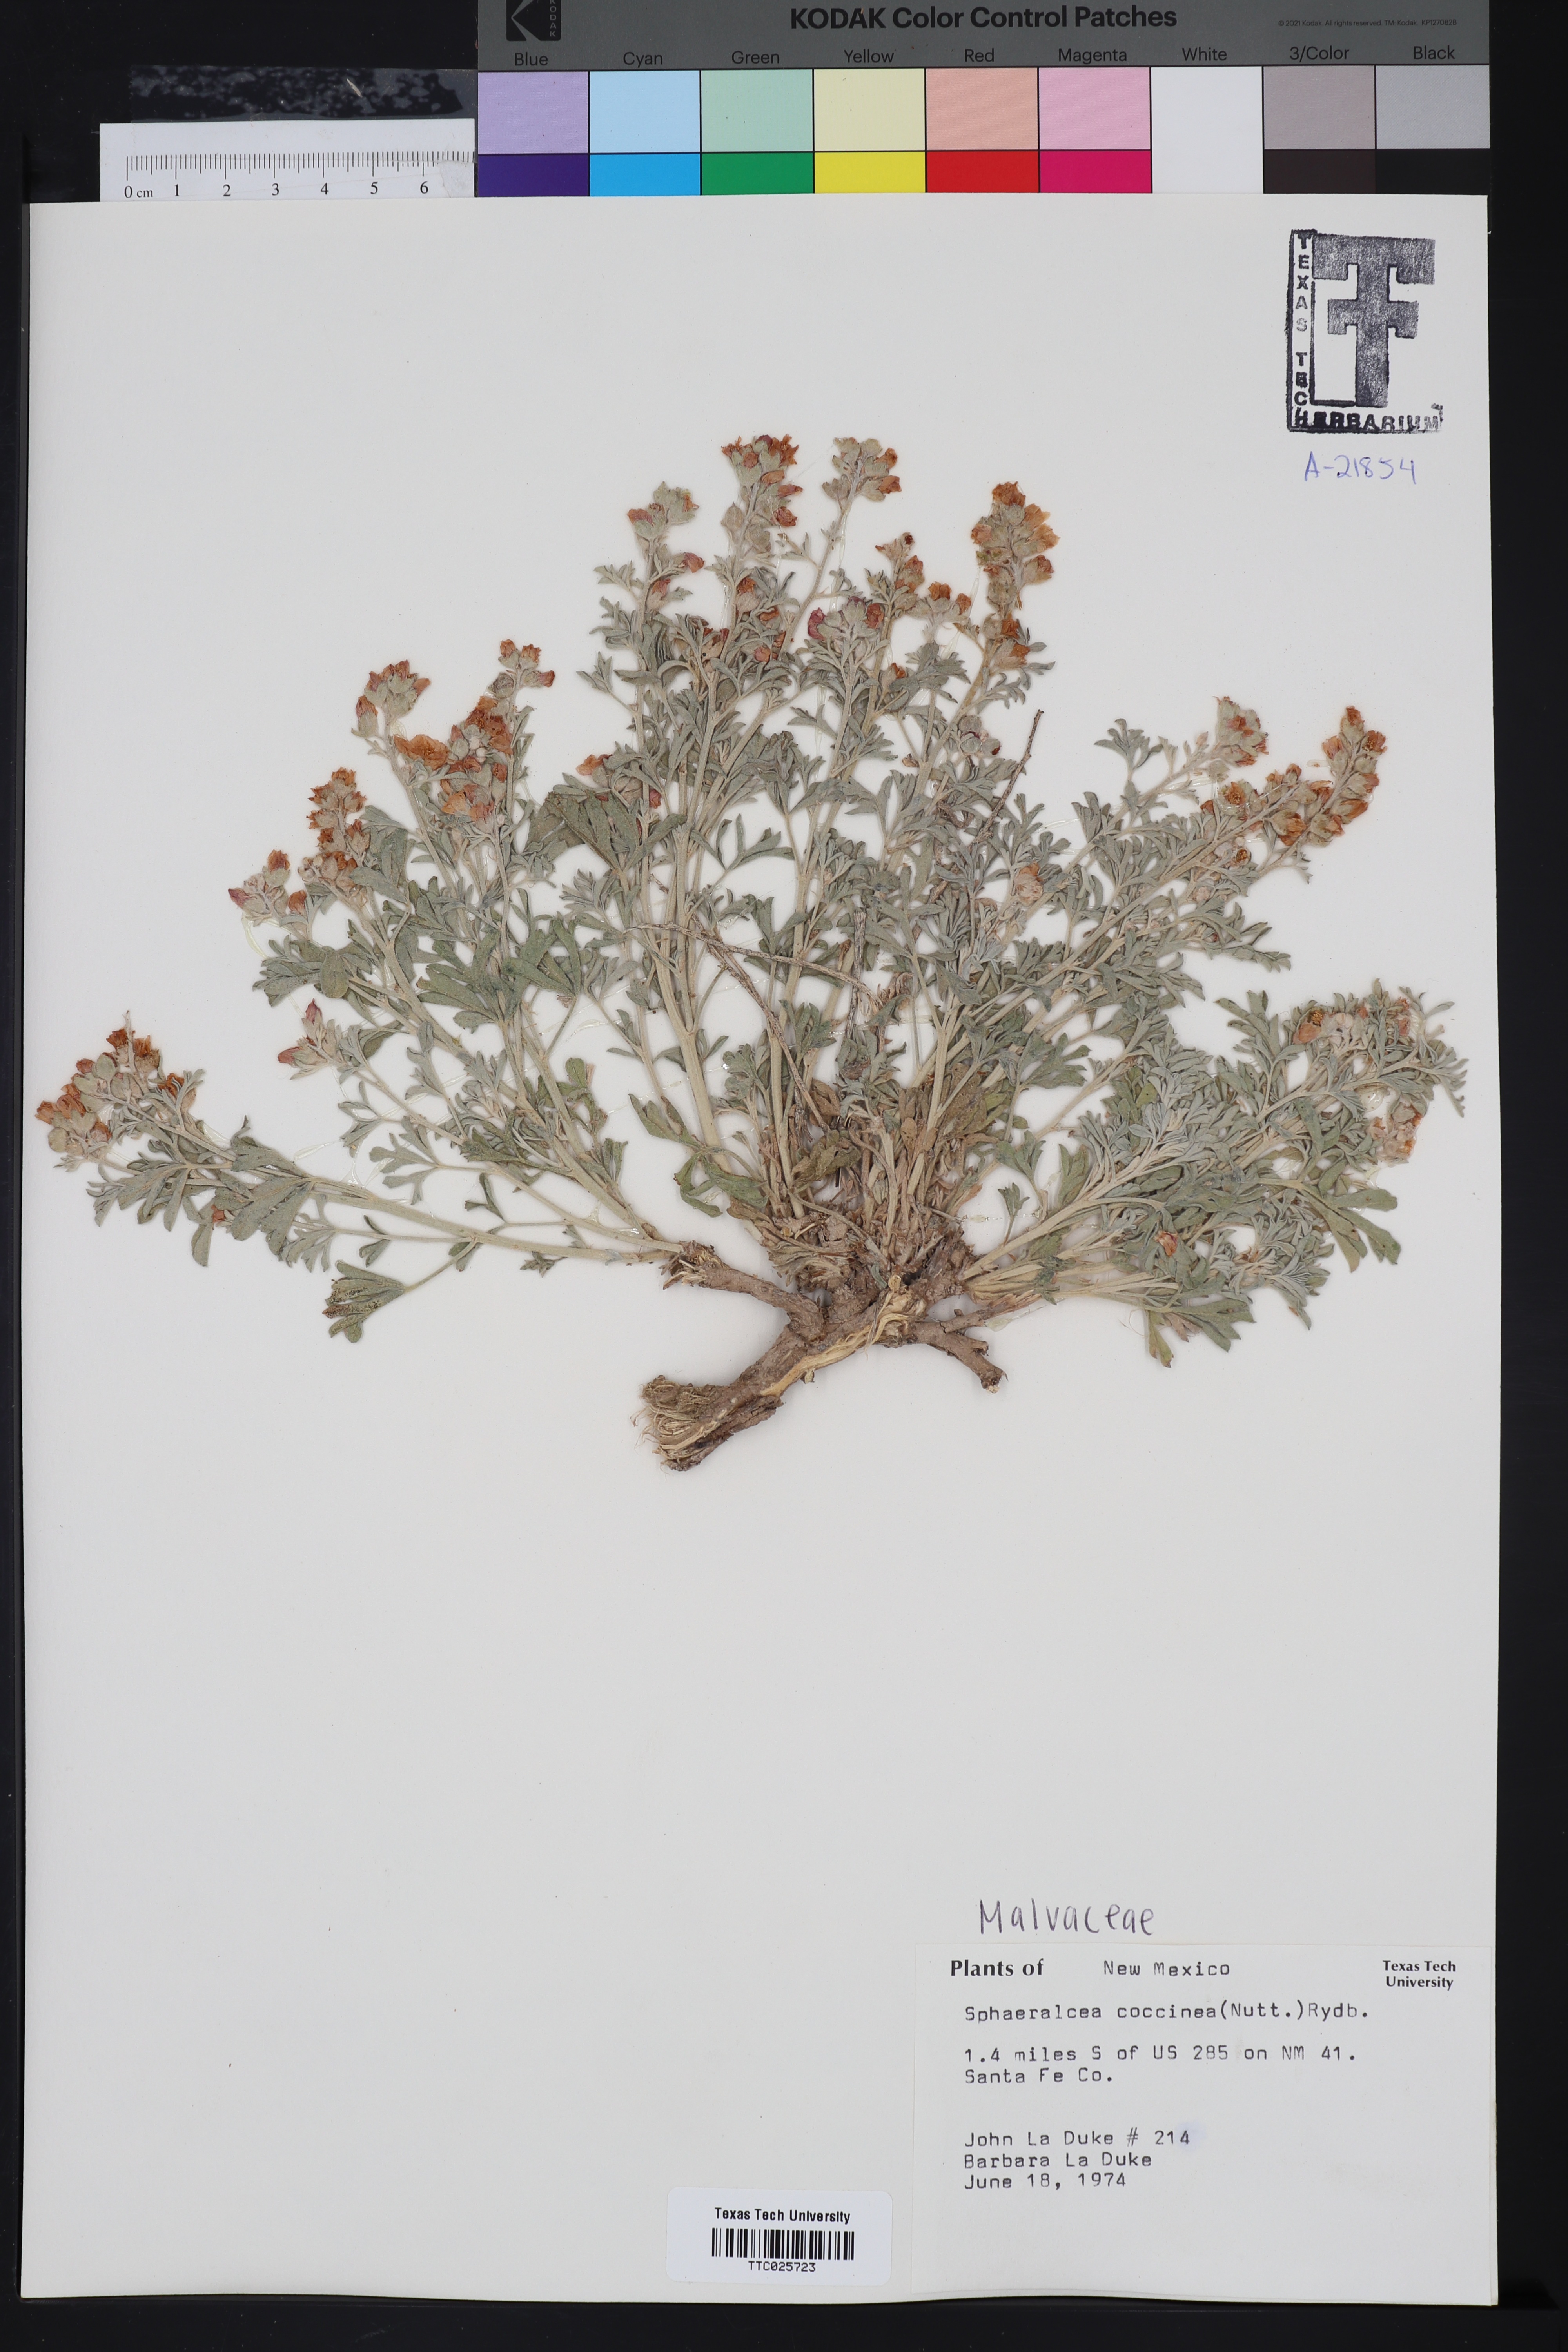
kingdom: Plantae
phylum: Tracheophyta
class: Magnoliopsida
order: Malvales
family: Malvaceae
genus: Sphaeralcea
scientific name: Sphaeralcea coccinea
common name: Moss-rose
